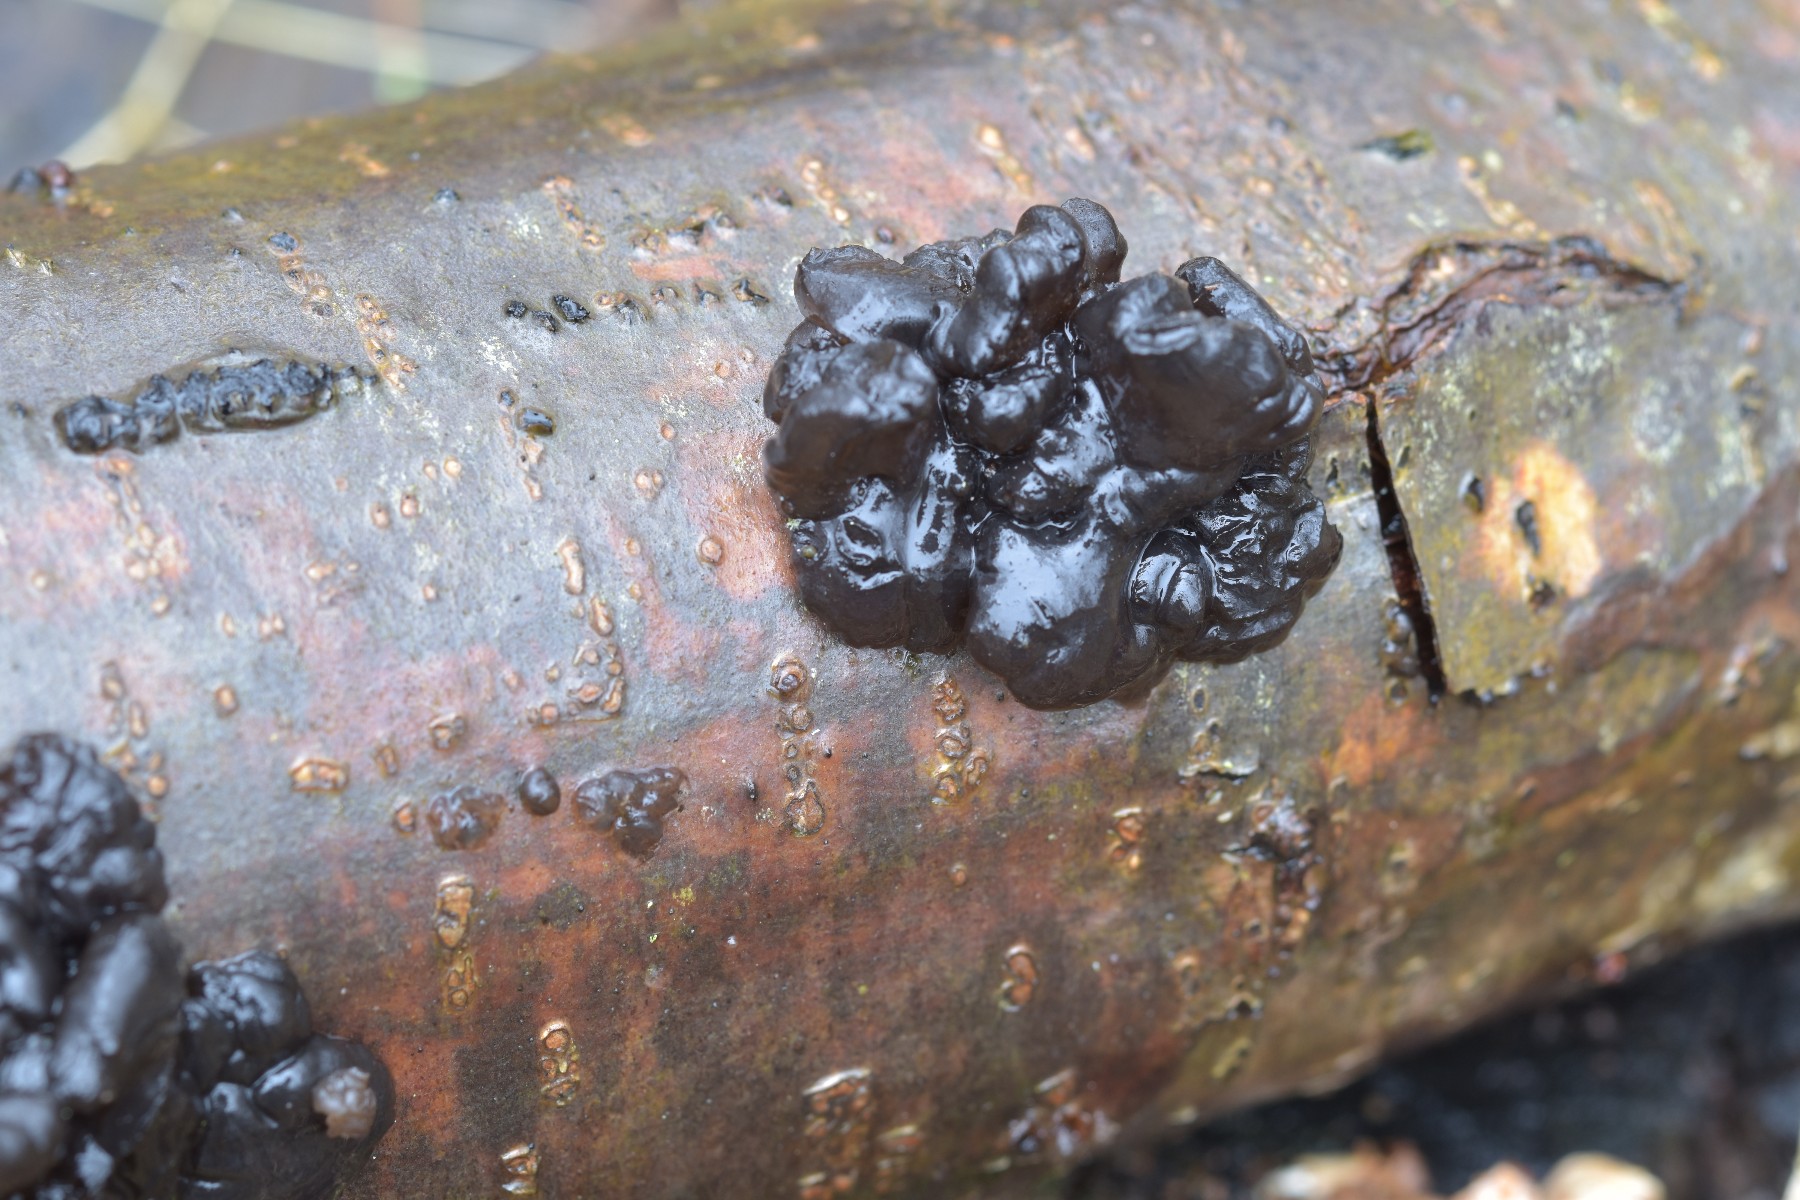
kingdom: Fungi
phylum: Basidiomycota
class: Agaricomycetes
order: Auriculariales
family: Auriculariaceae
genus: Exidia
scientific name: Exidia nigricans
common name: almindelig bævretop
